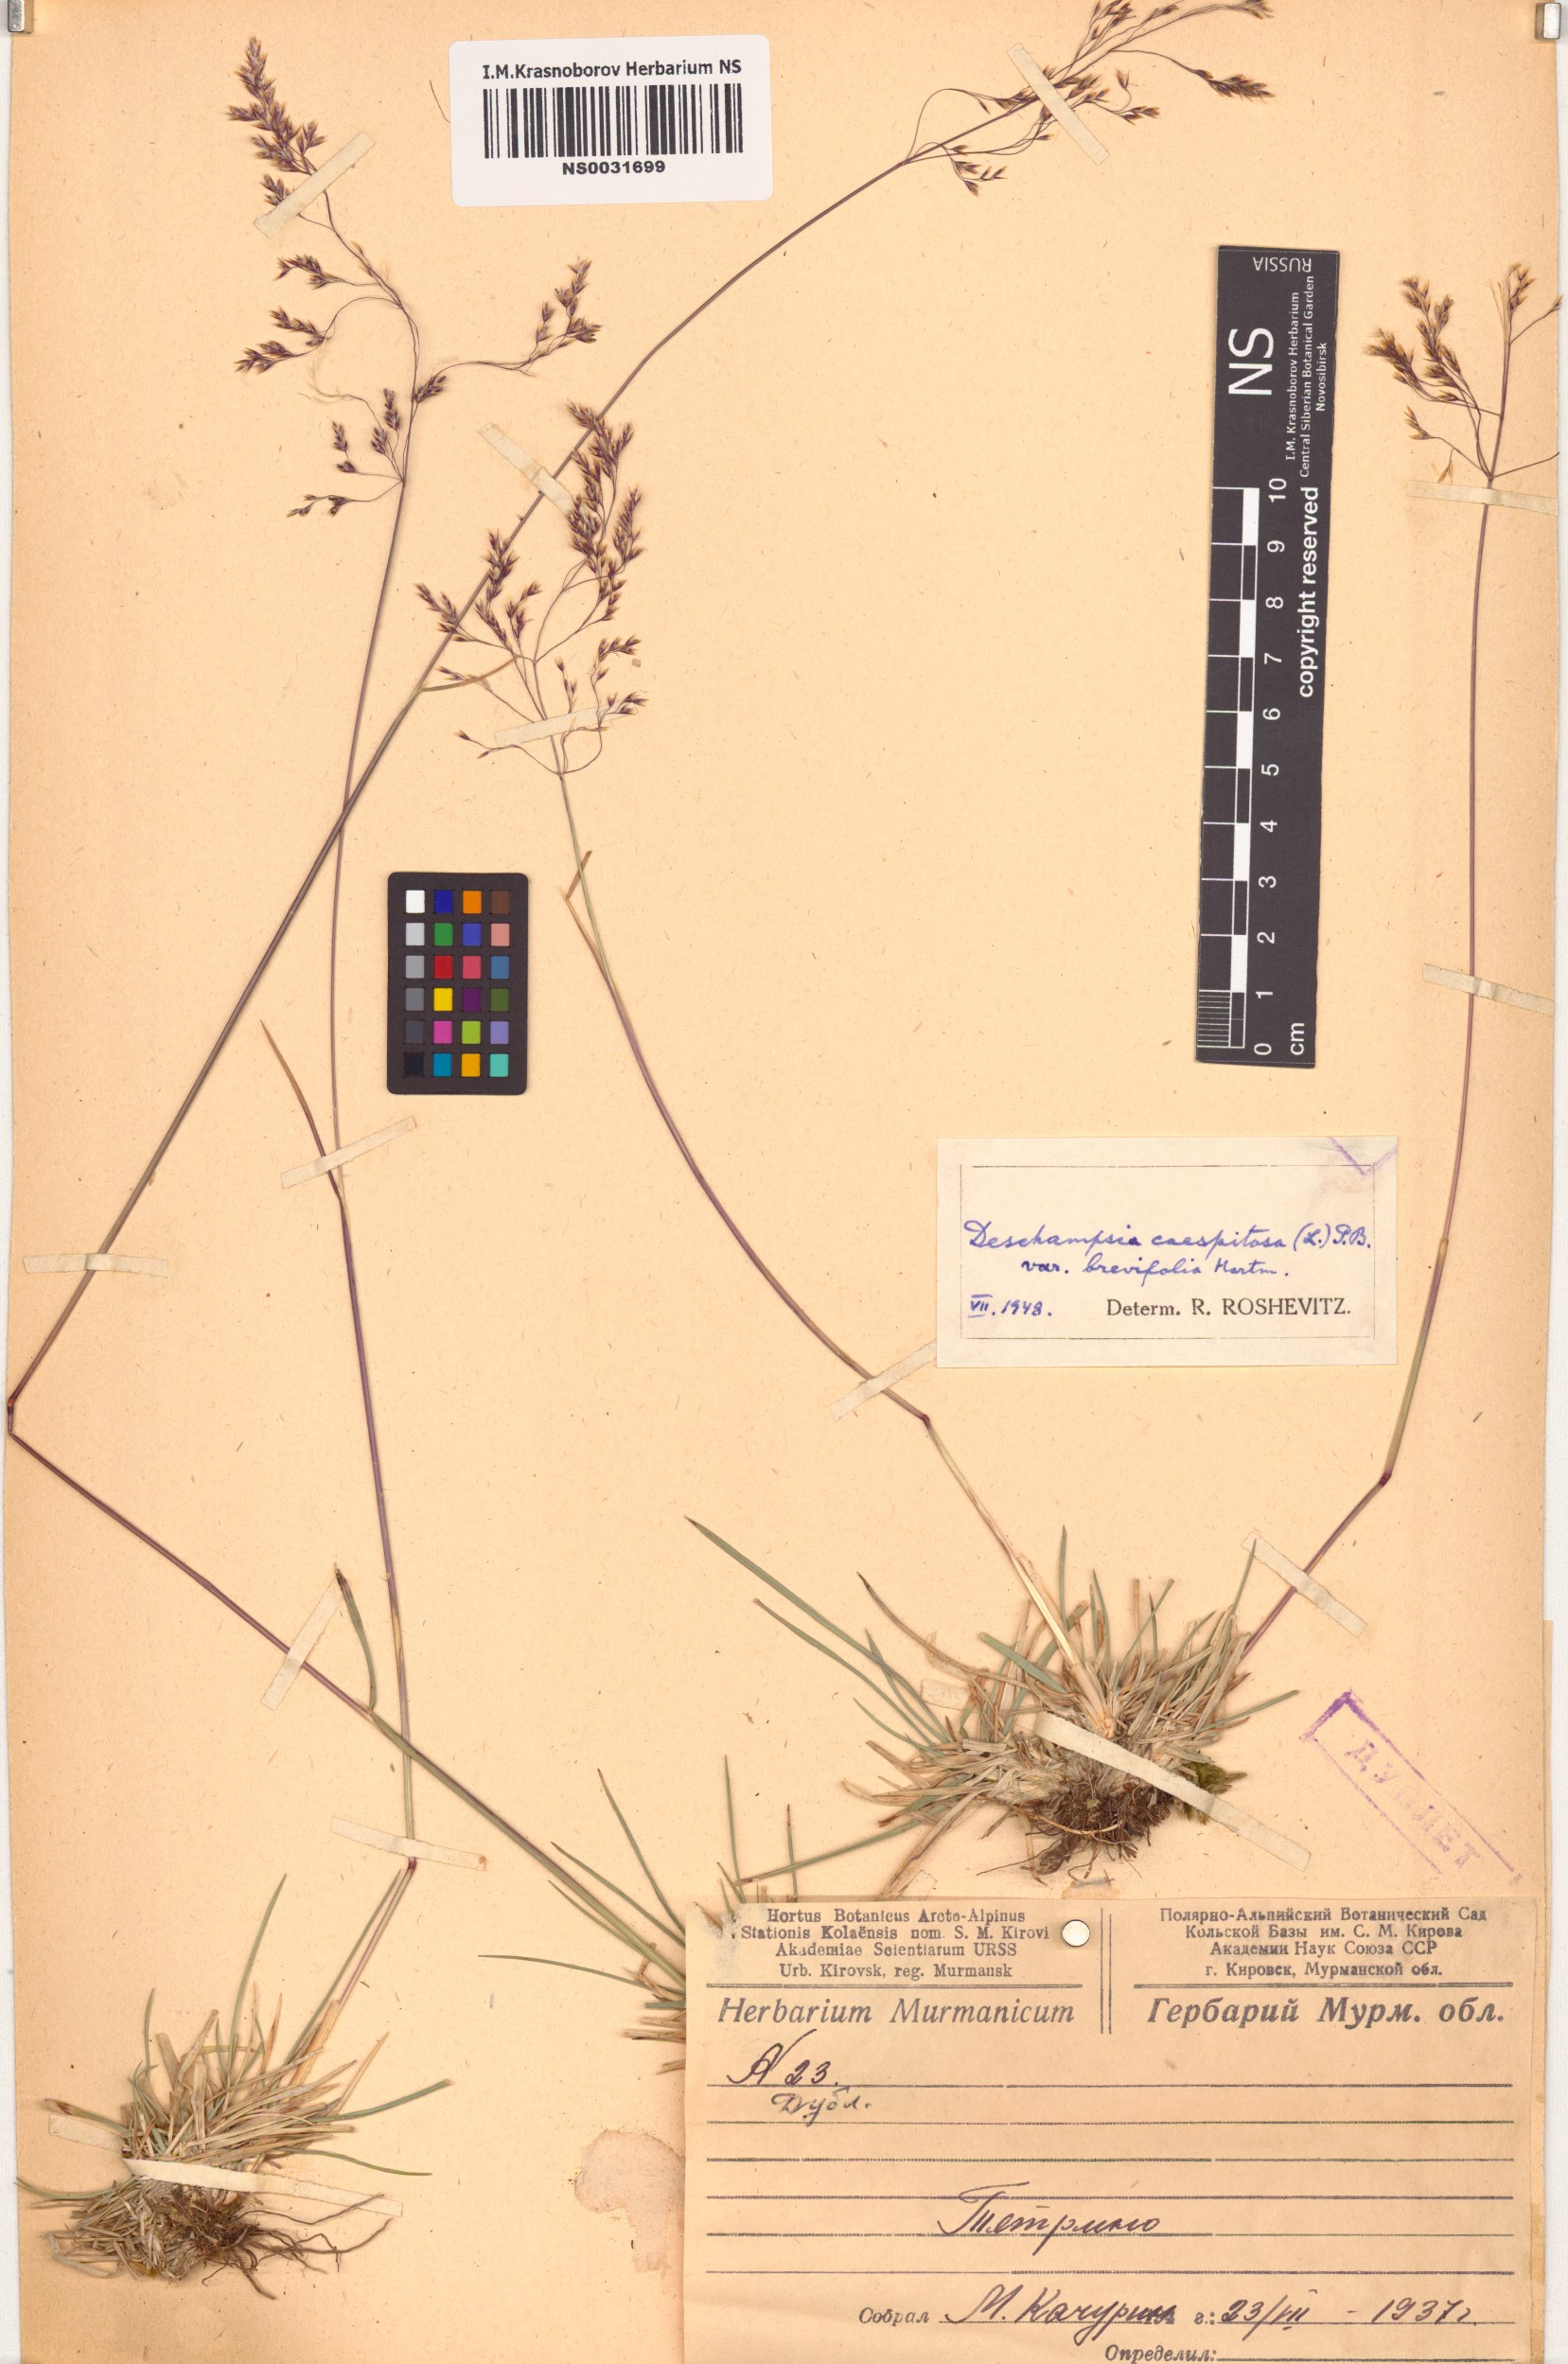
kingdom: Plantae
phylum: Tracheophyta
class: Liliopsida
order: Poales
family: Poaceae
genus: Deschampsia
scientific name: Deschampsia cespitosa
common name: Tufted hair-grass
